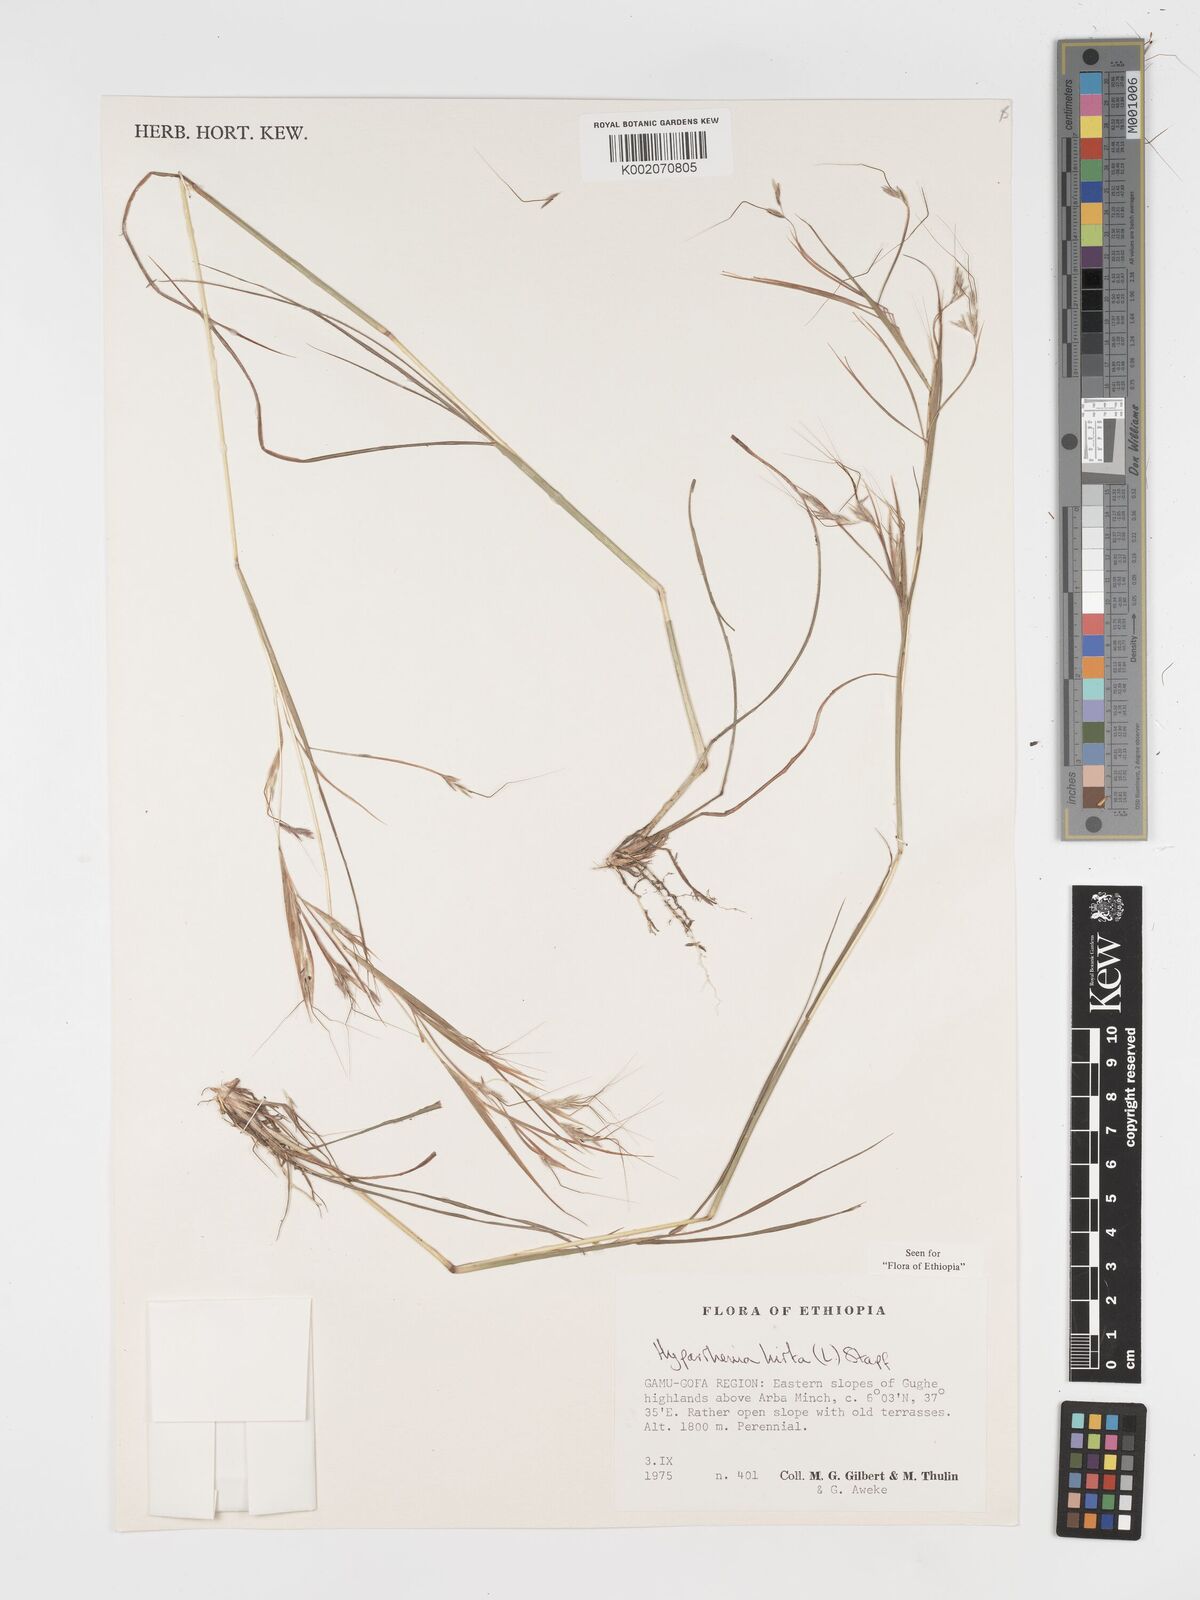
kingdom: Plantae
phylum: Tracheophyta
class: Liliopsida
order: Poales
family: Poaceae
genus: Hyparrhenia
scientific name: Hyparrhenia hirta
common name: Thatching grass
